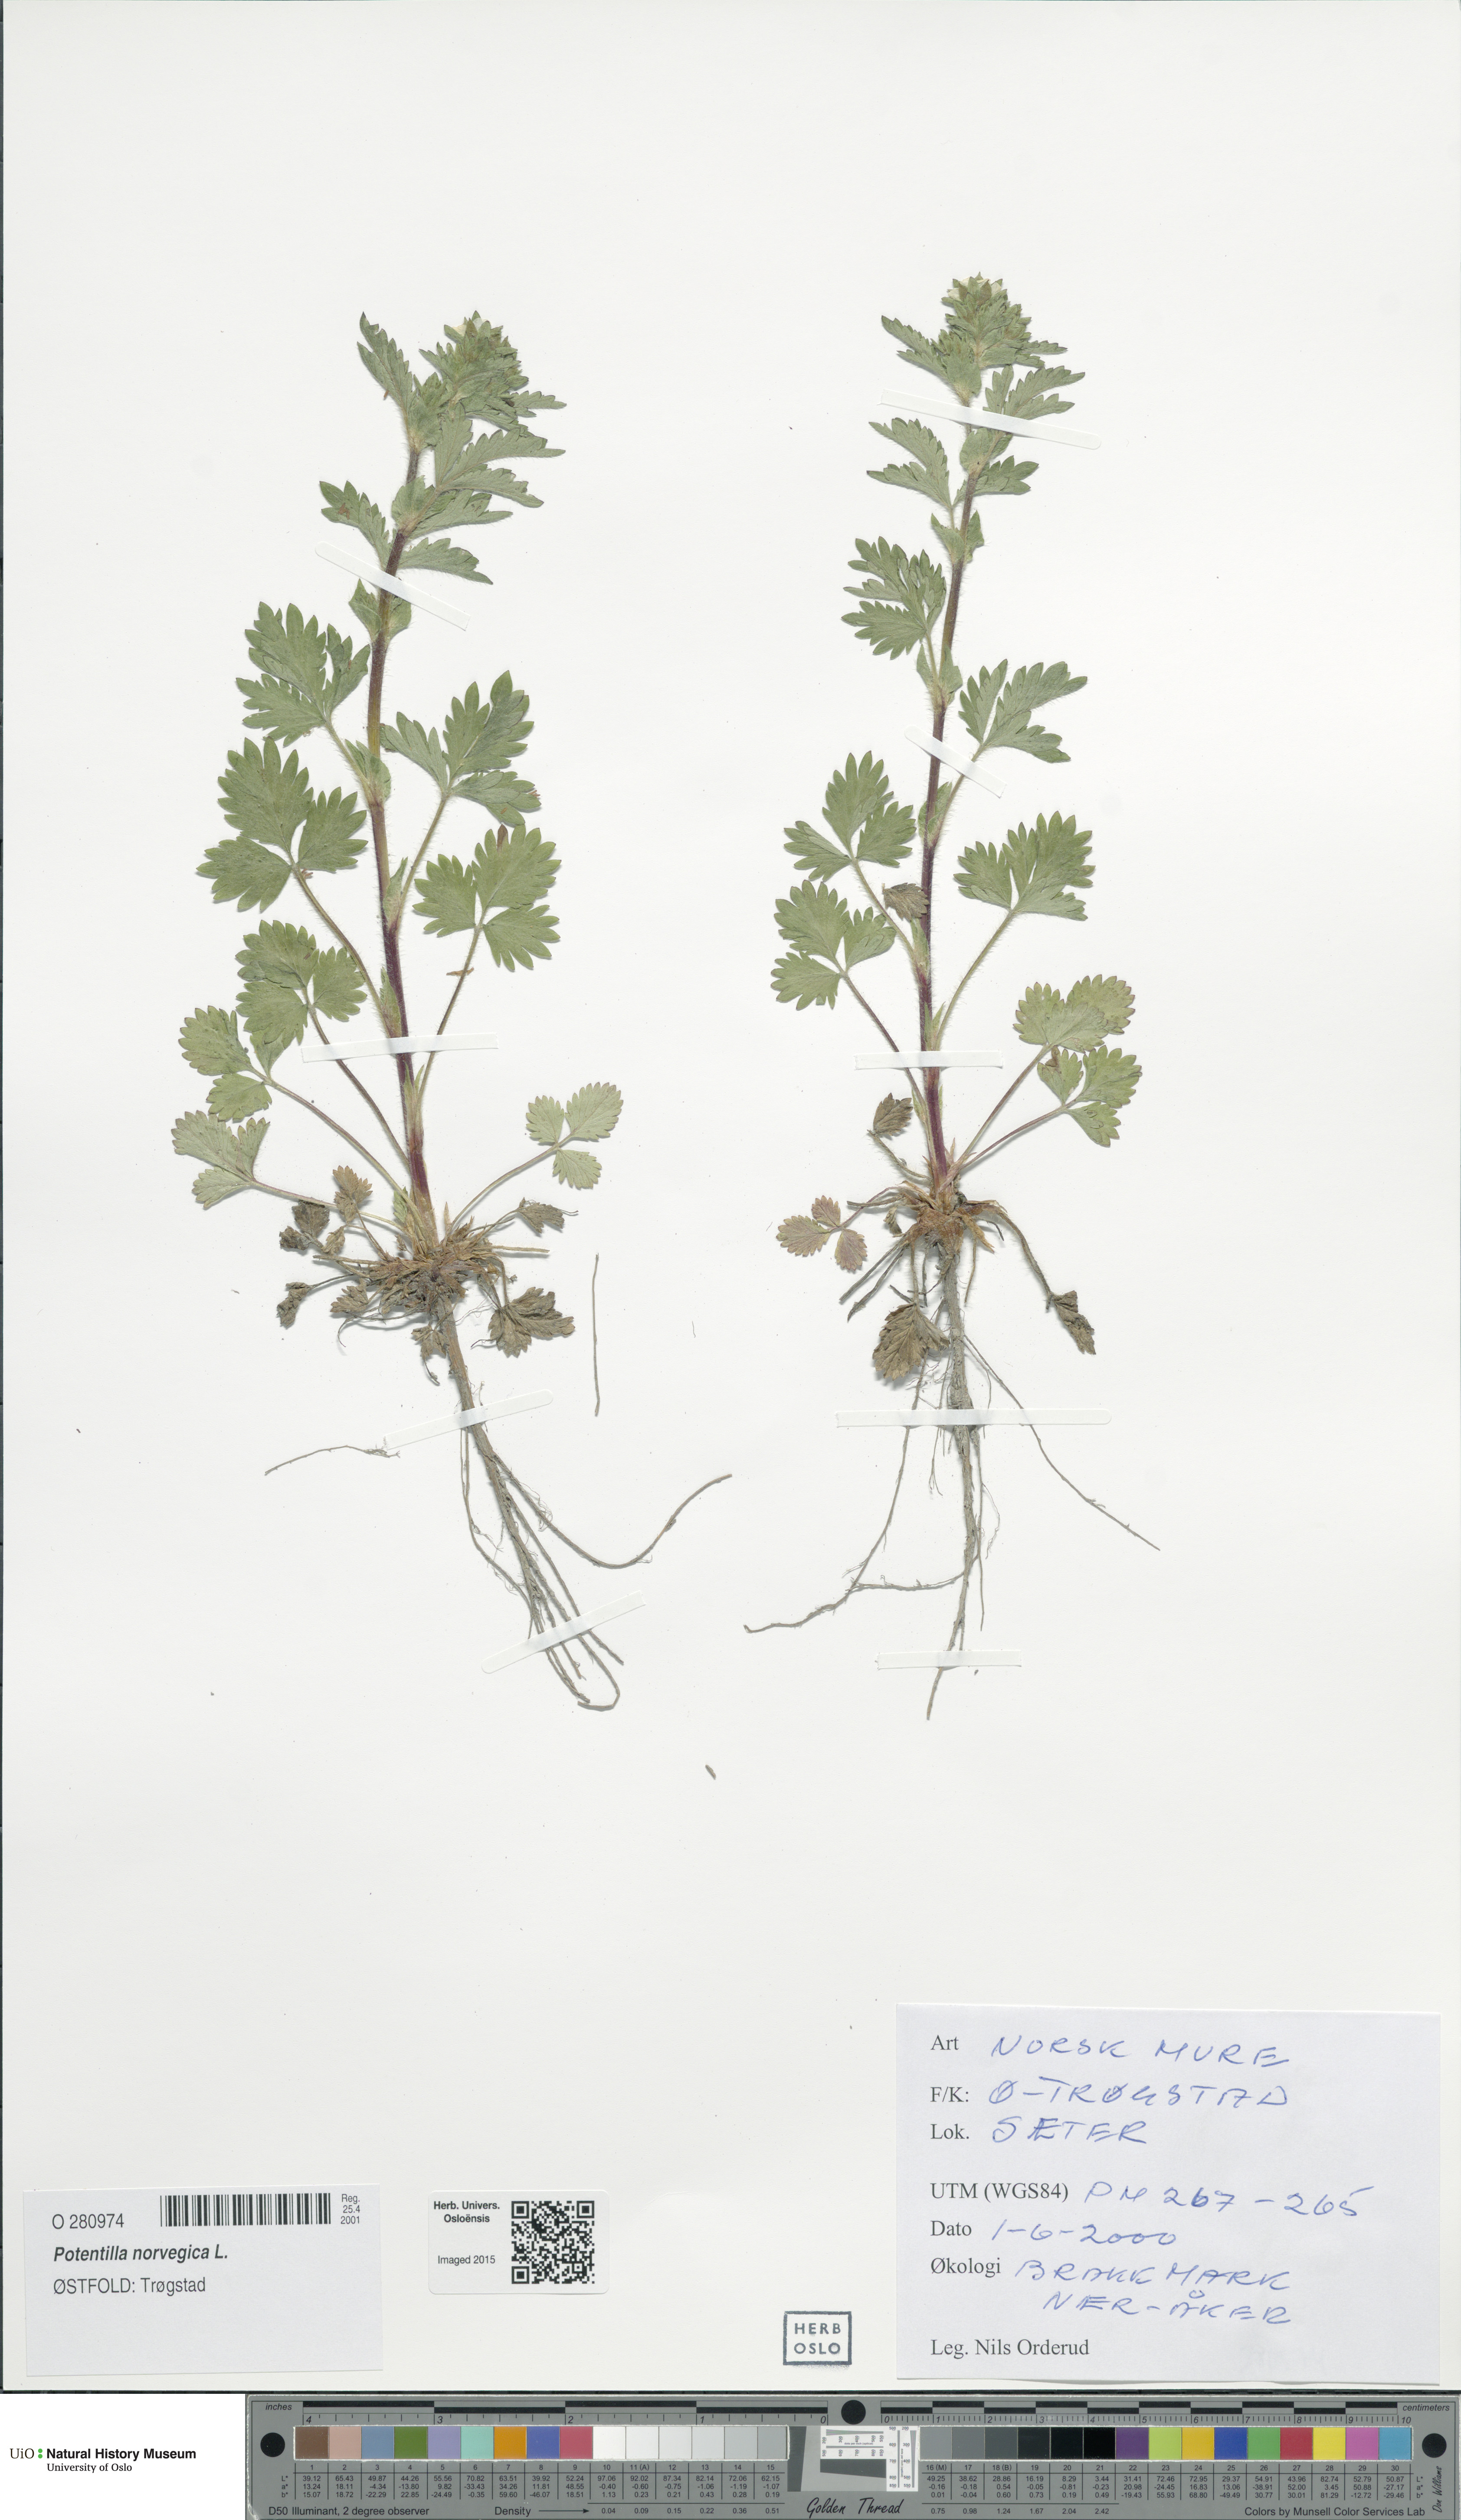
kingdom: Plantae
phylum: Tracheophyta
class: Magnoliopsida
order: Rosales
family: Rosaceae
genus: Potentilla
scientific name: Potentilla norvegica
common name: Ternate-leaved cinquefoil
